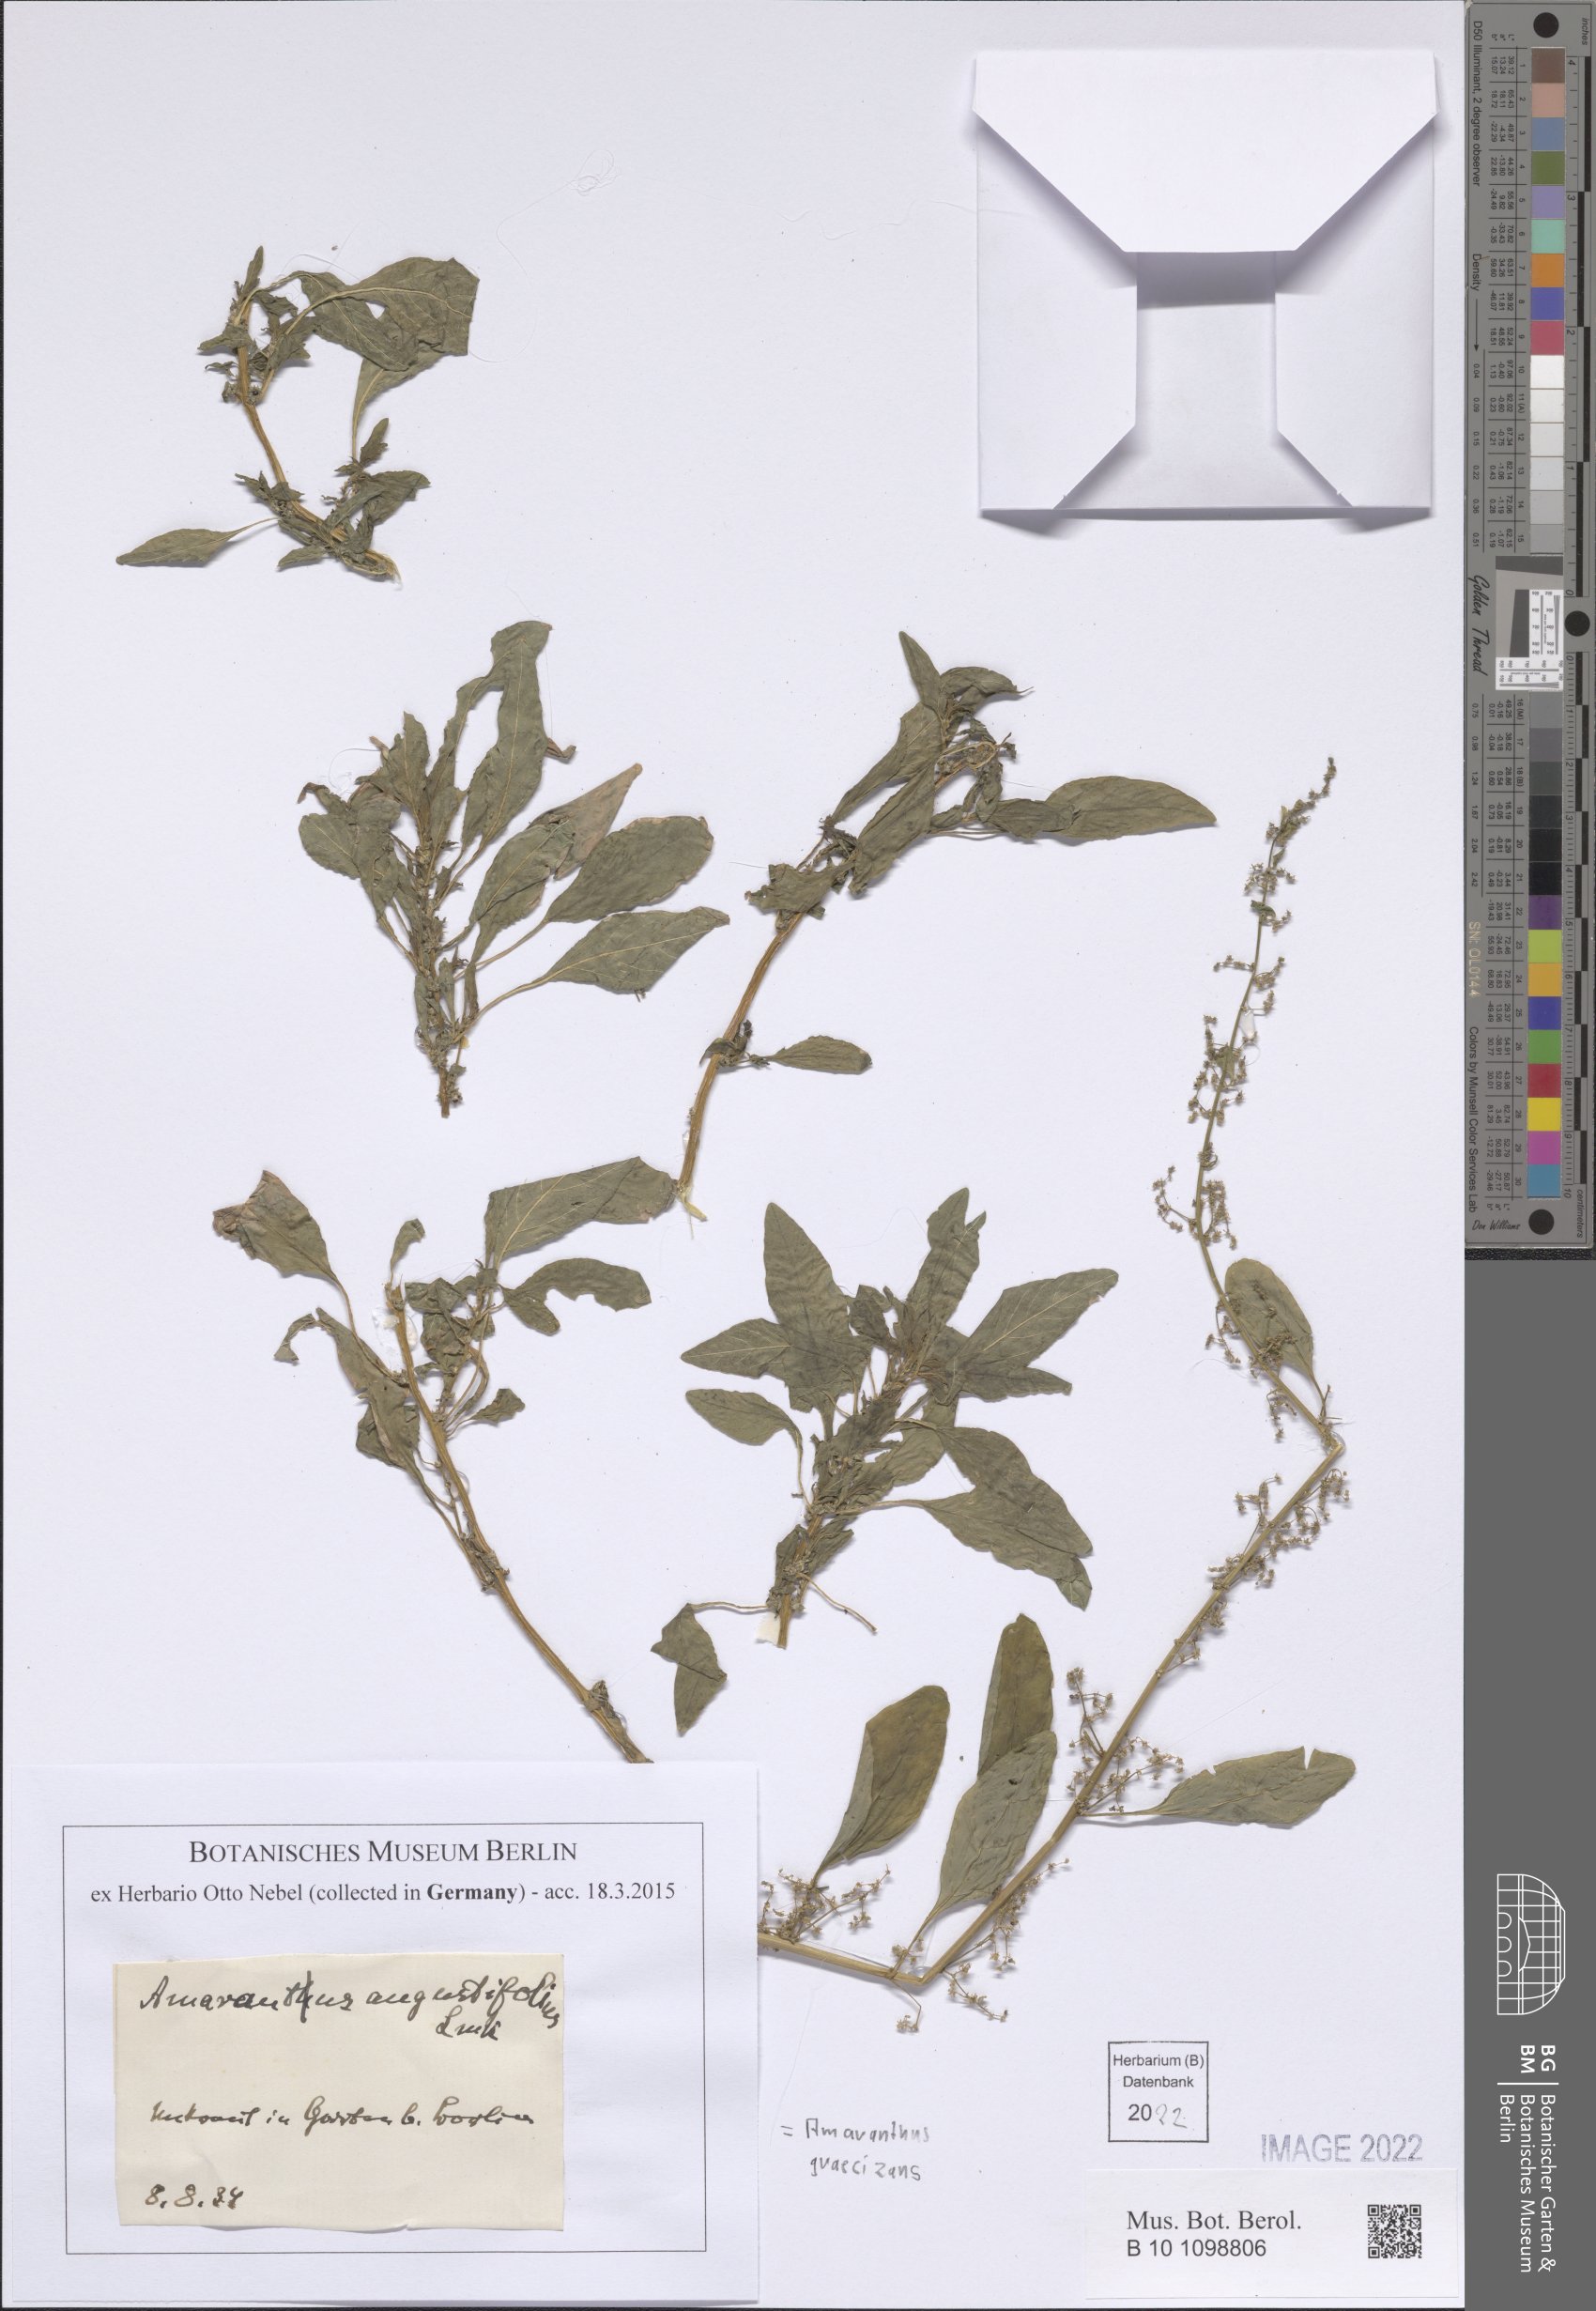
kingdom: Plantae
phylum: Tracheophyta
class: Magnoliopsida
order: Caryophyllales
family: Amaranthaceae
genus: Amaranthus
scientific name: Amaranthus graecizans
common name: Mediterranean amaranth
